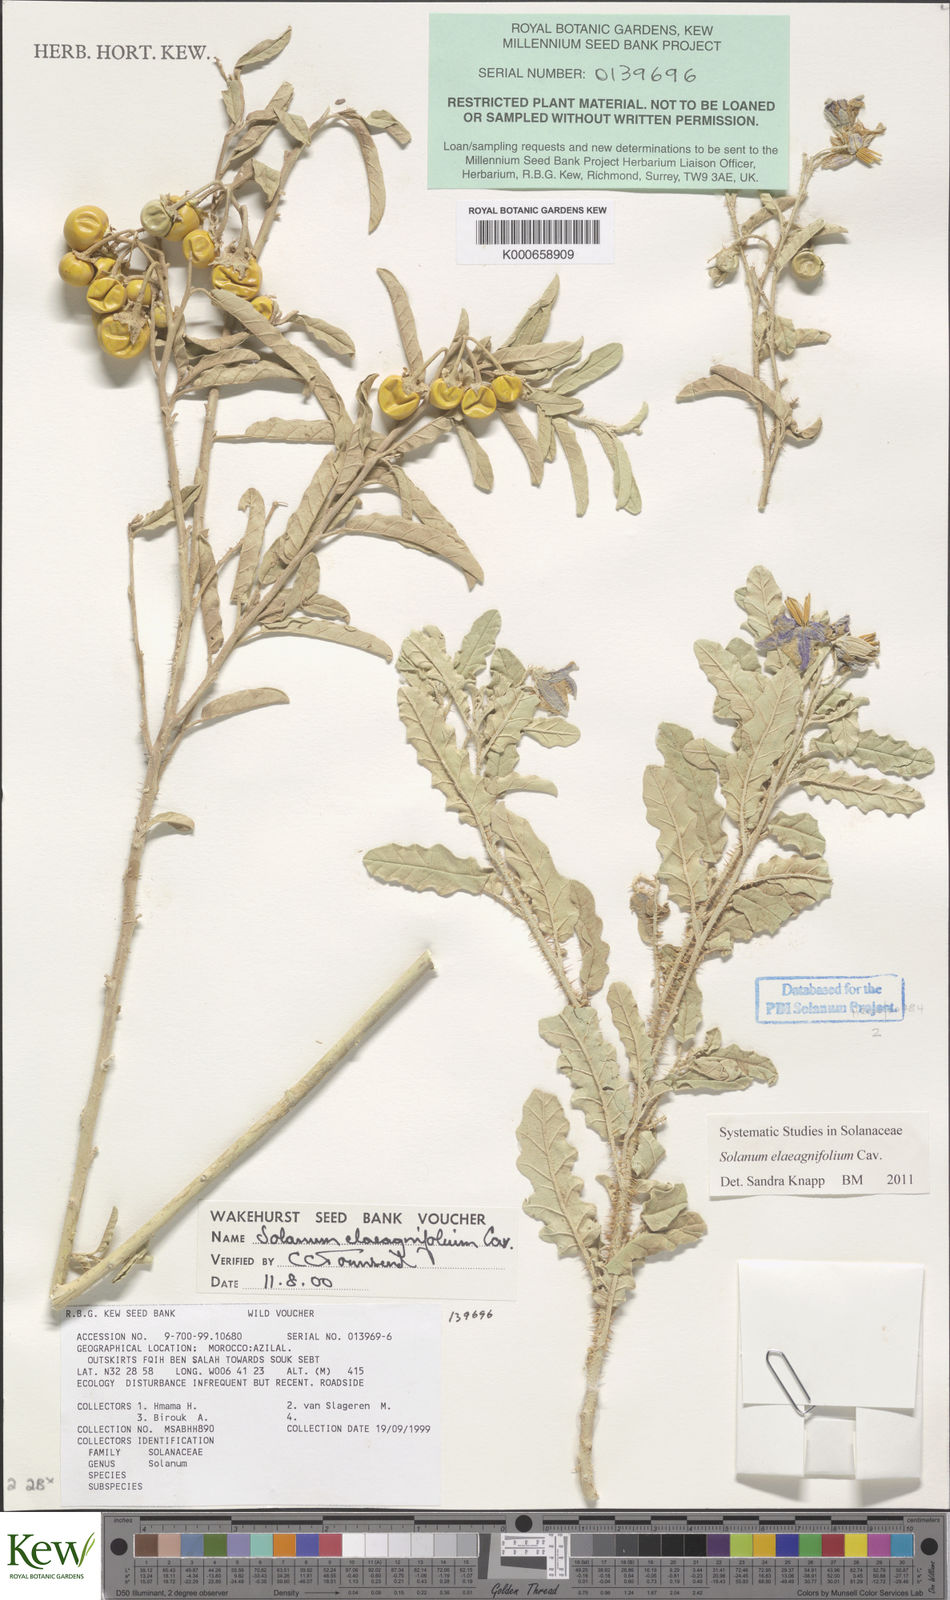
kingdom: Plantae
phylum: Tracheophyta
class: Magnoliopsida
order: Solanales
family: Solanaceae
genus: Solanum
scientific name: Solanum elaeagnifolium
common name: Silverleaf nightshade
